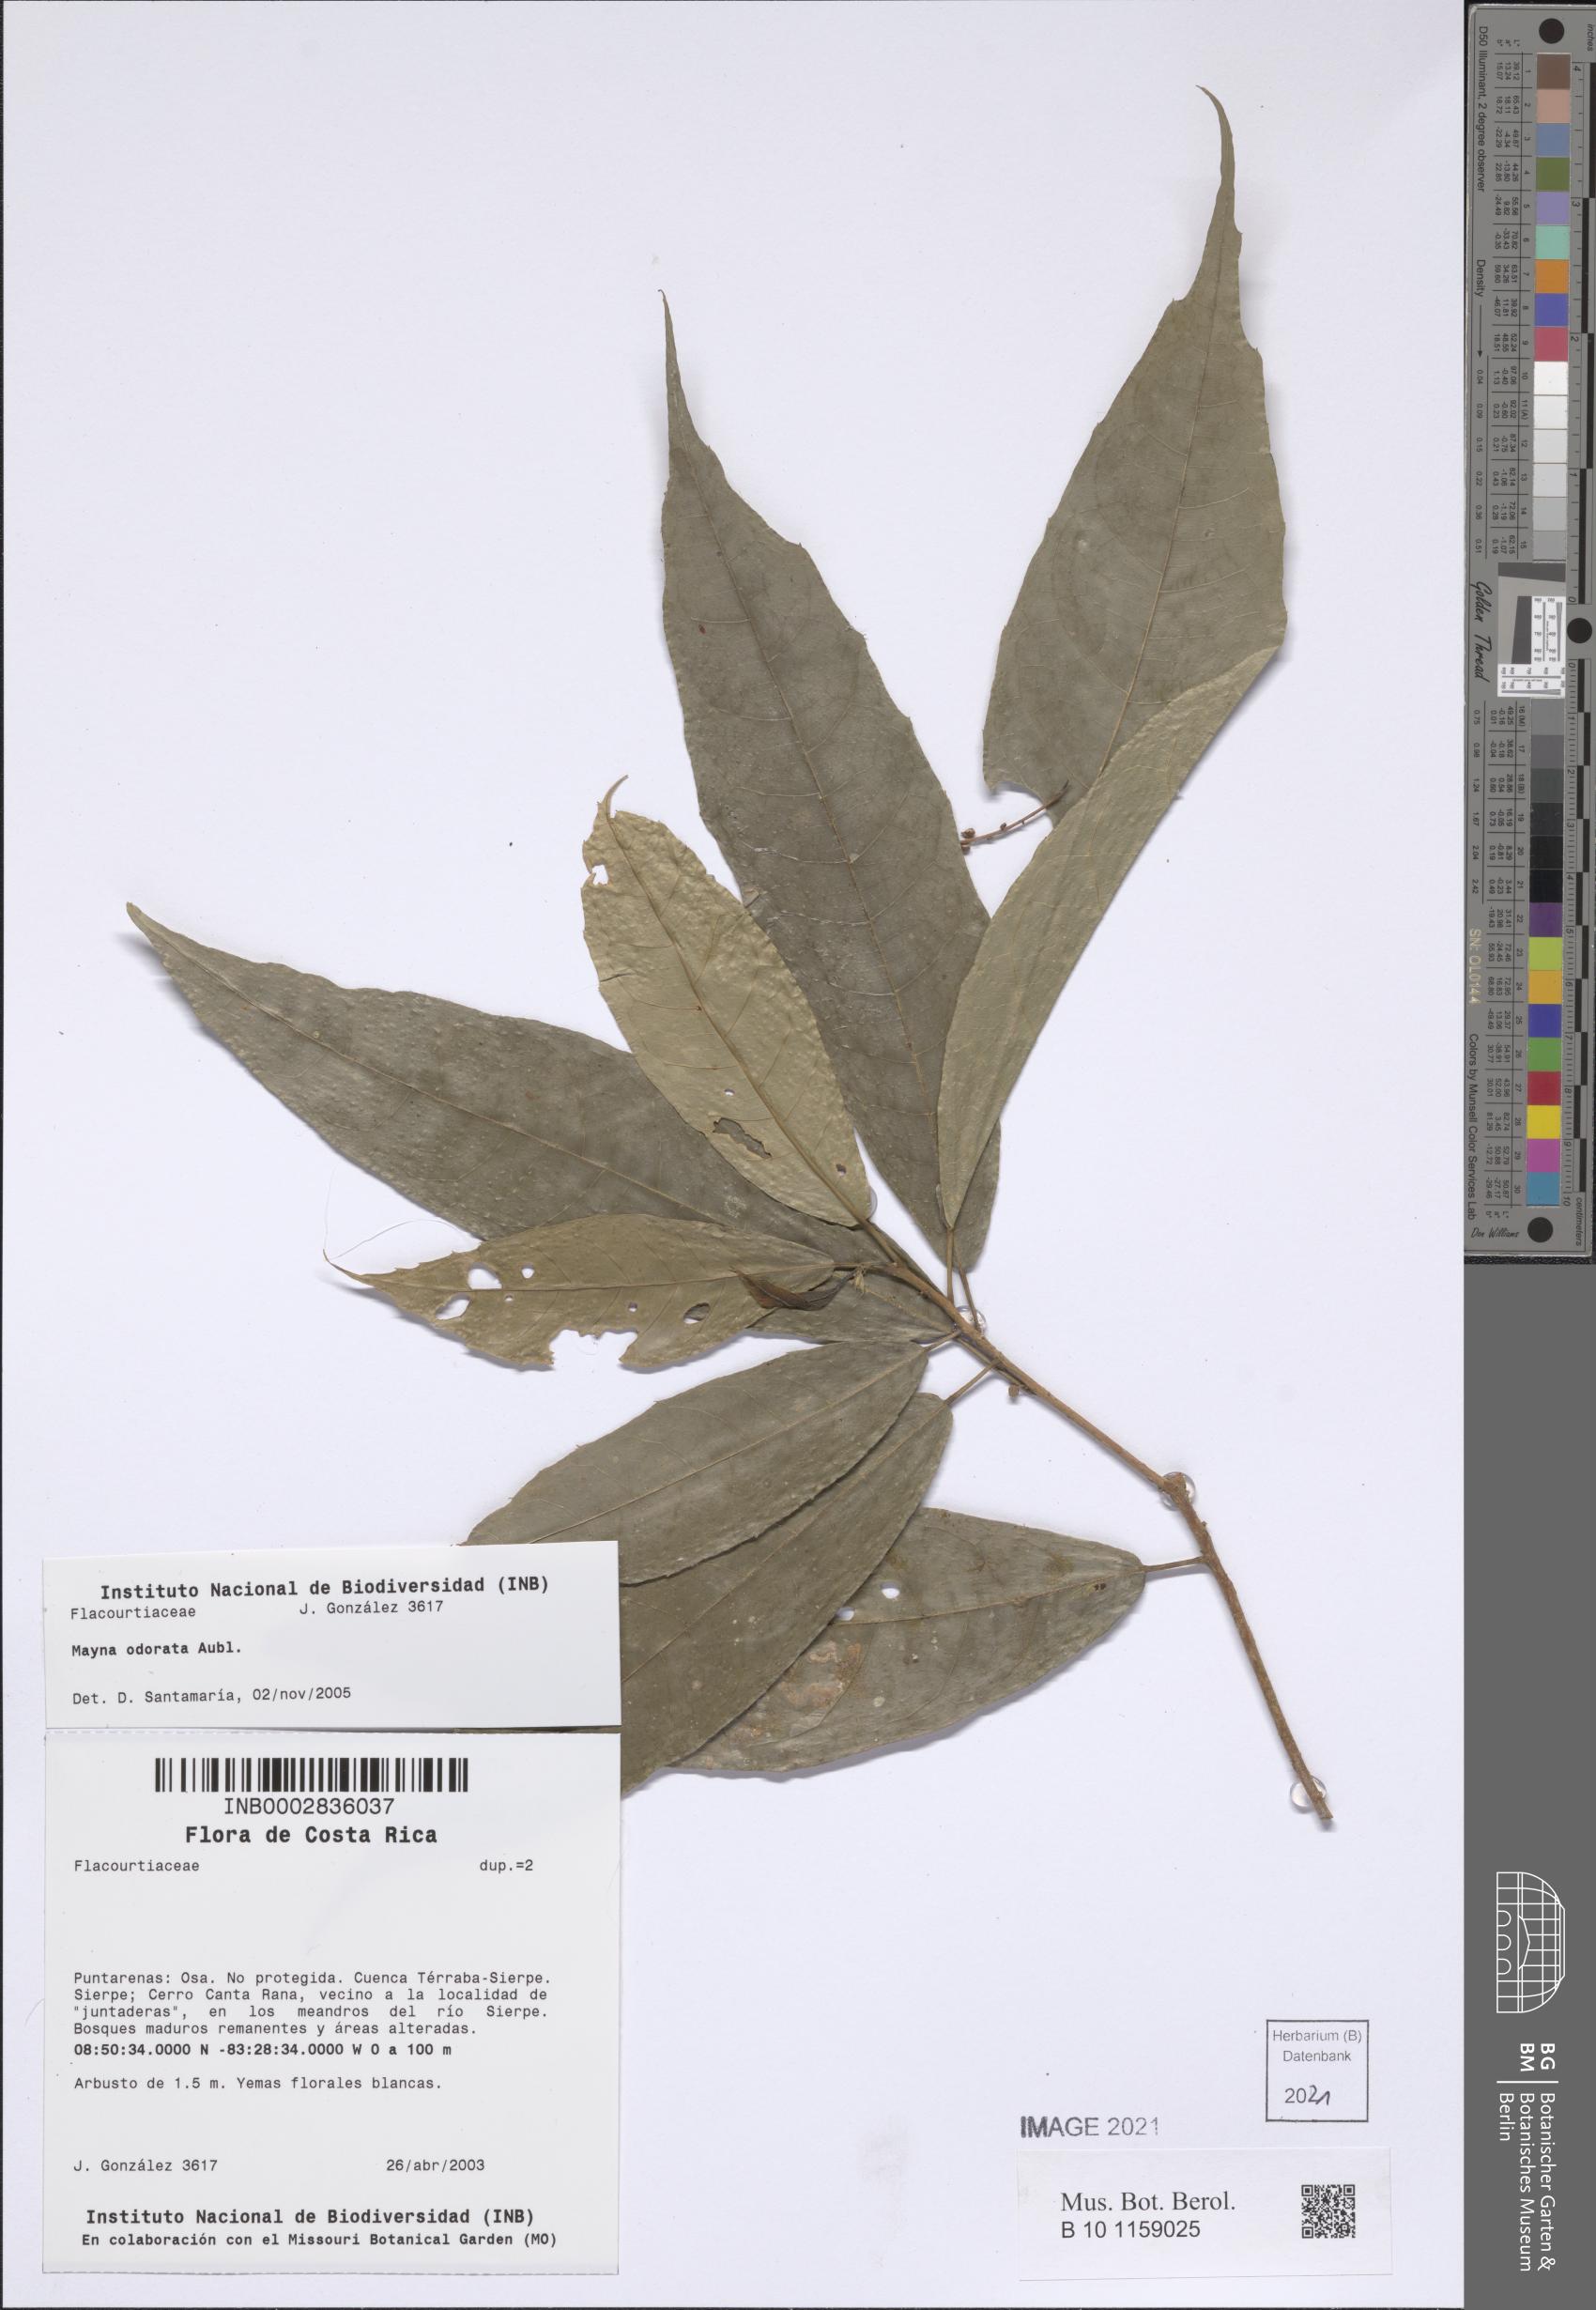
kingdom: Plantae
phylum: Tracheophyta
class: Magnoliopsida
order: Malpighiales
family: Achariaceae
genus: Mayna
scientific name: Mayna odorata
